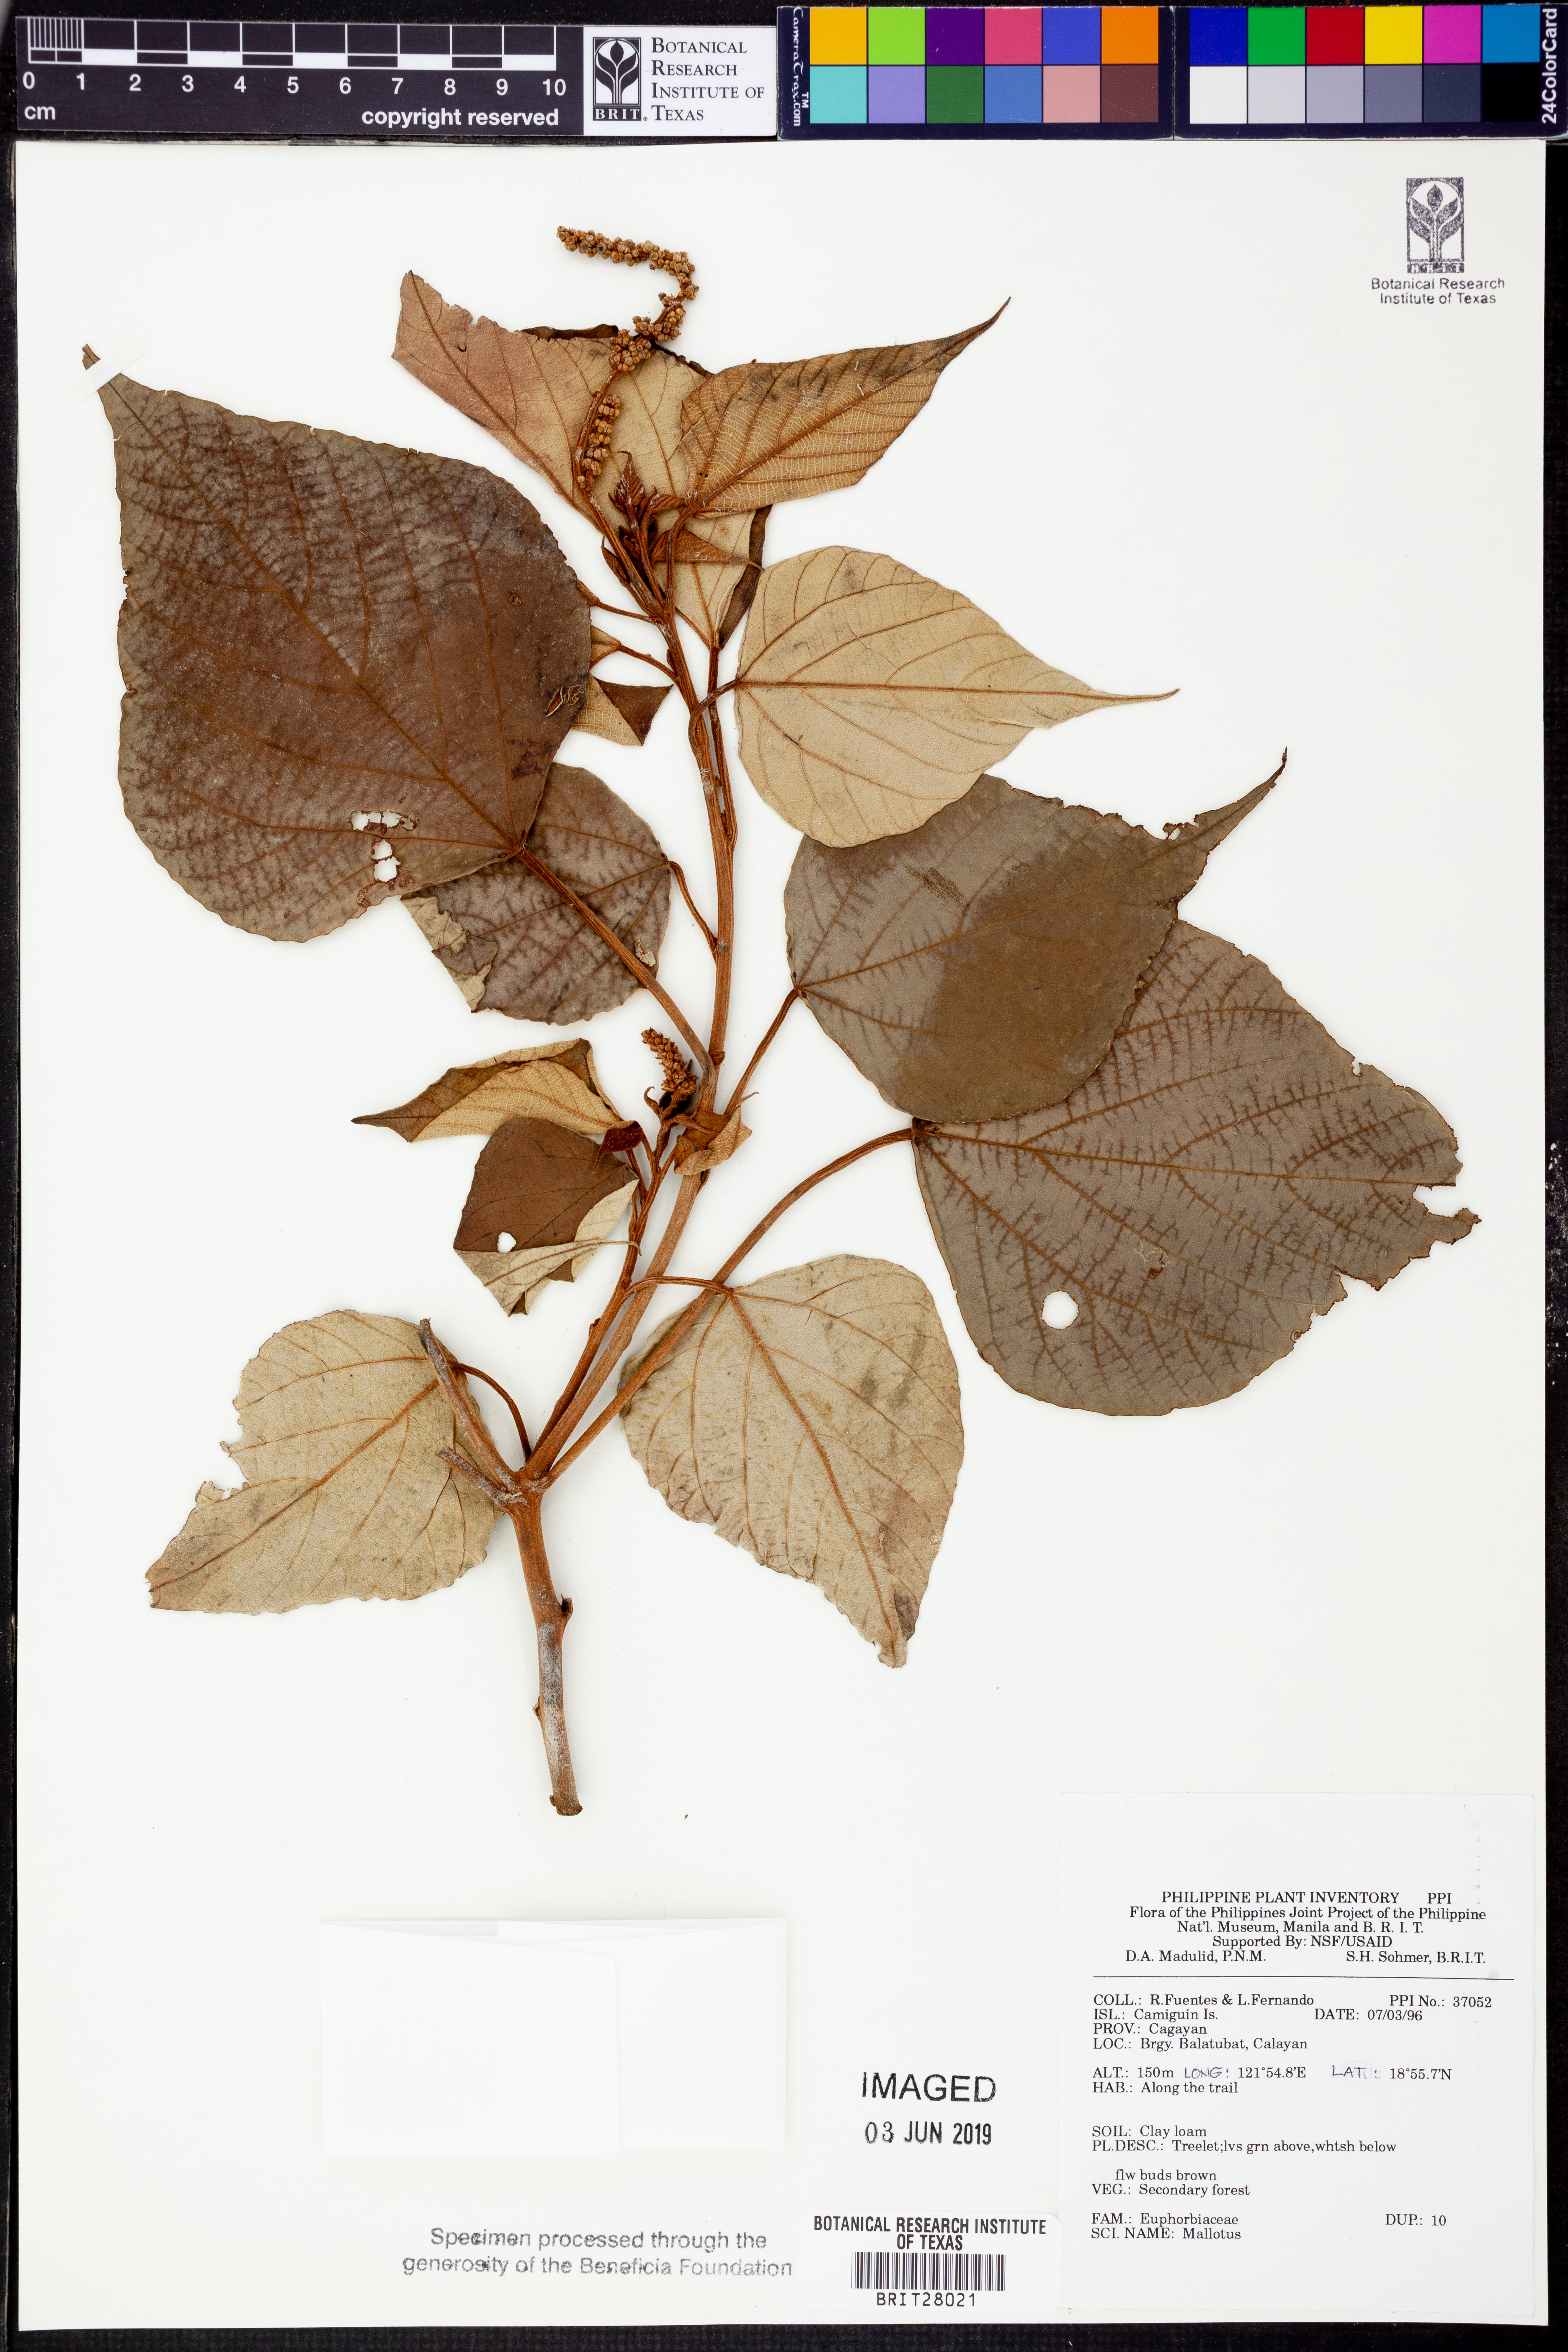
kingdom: Plantae
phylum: Tracheophyta
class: Magnoliopsida
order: Malpighiales
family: Euphorbiaceae
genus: Mallotus
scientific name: Mallotus
